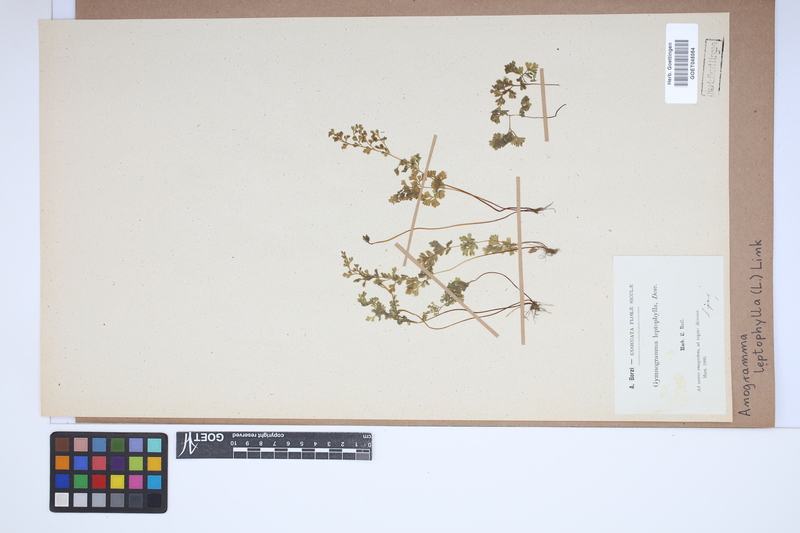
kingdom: Plantae
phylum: Tracheophyta
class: Polypodiopsida
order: Polypodiales
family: Pteridaceae
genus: Anogramma
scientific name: Anogramma leptophylla
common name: Jersey fern
